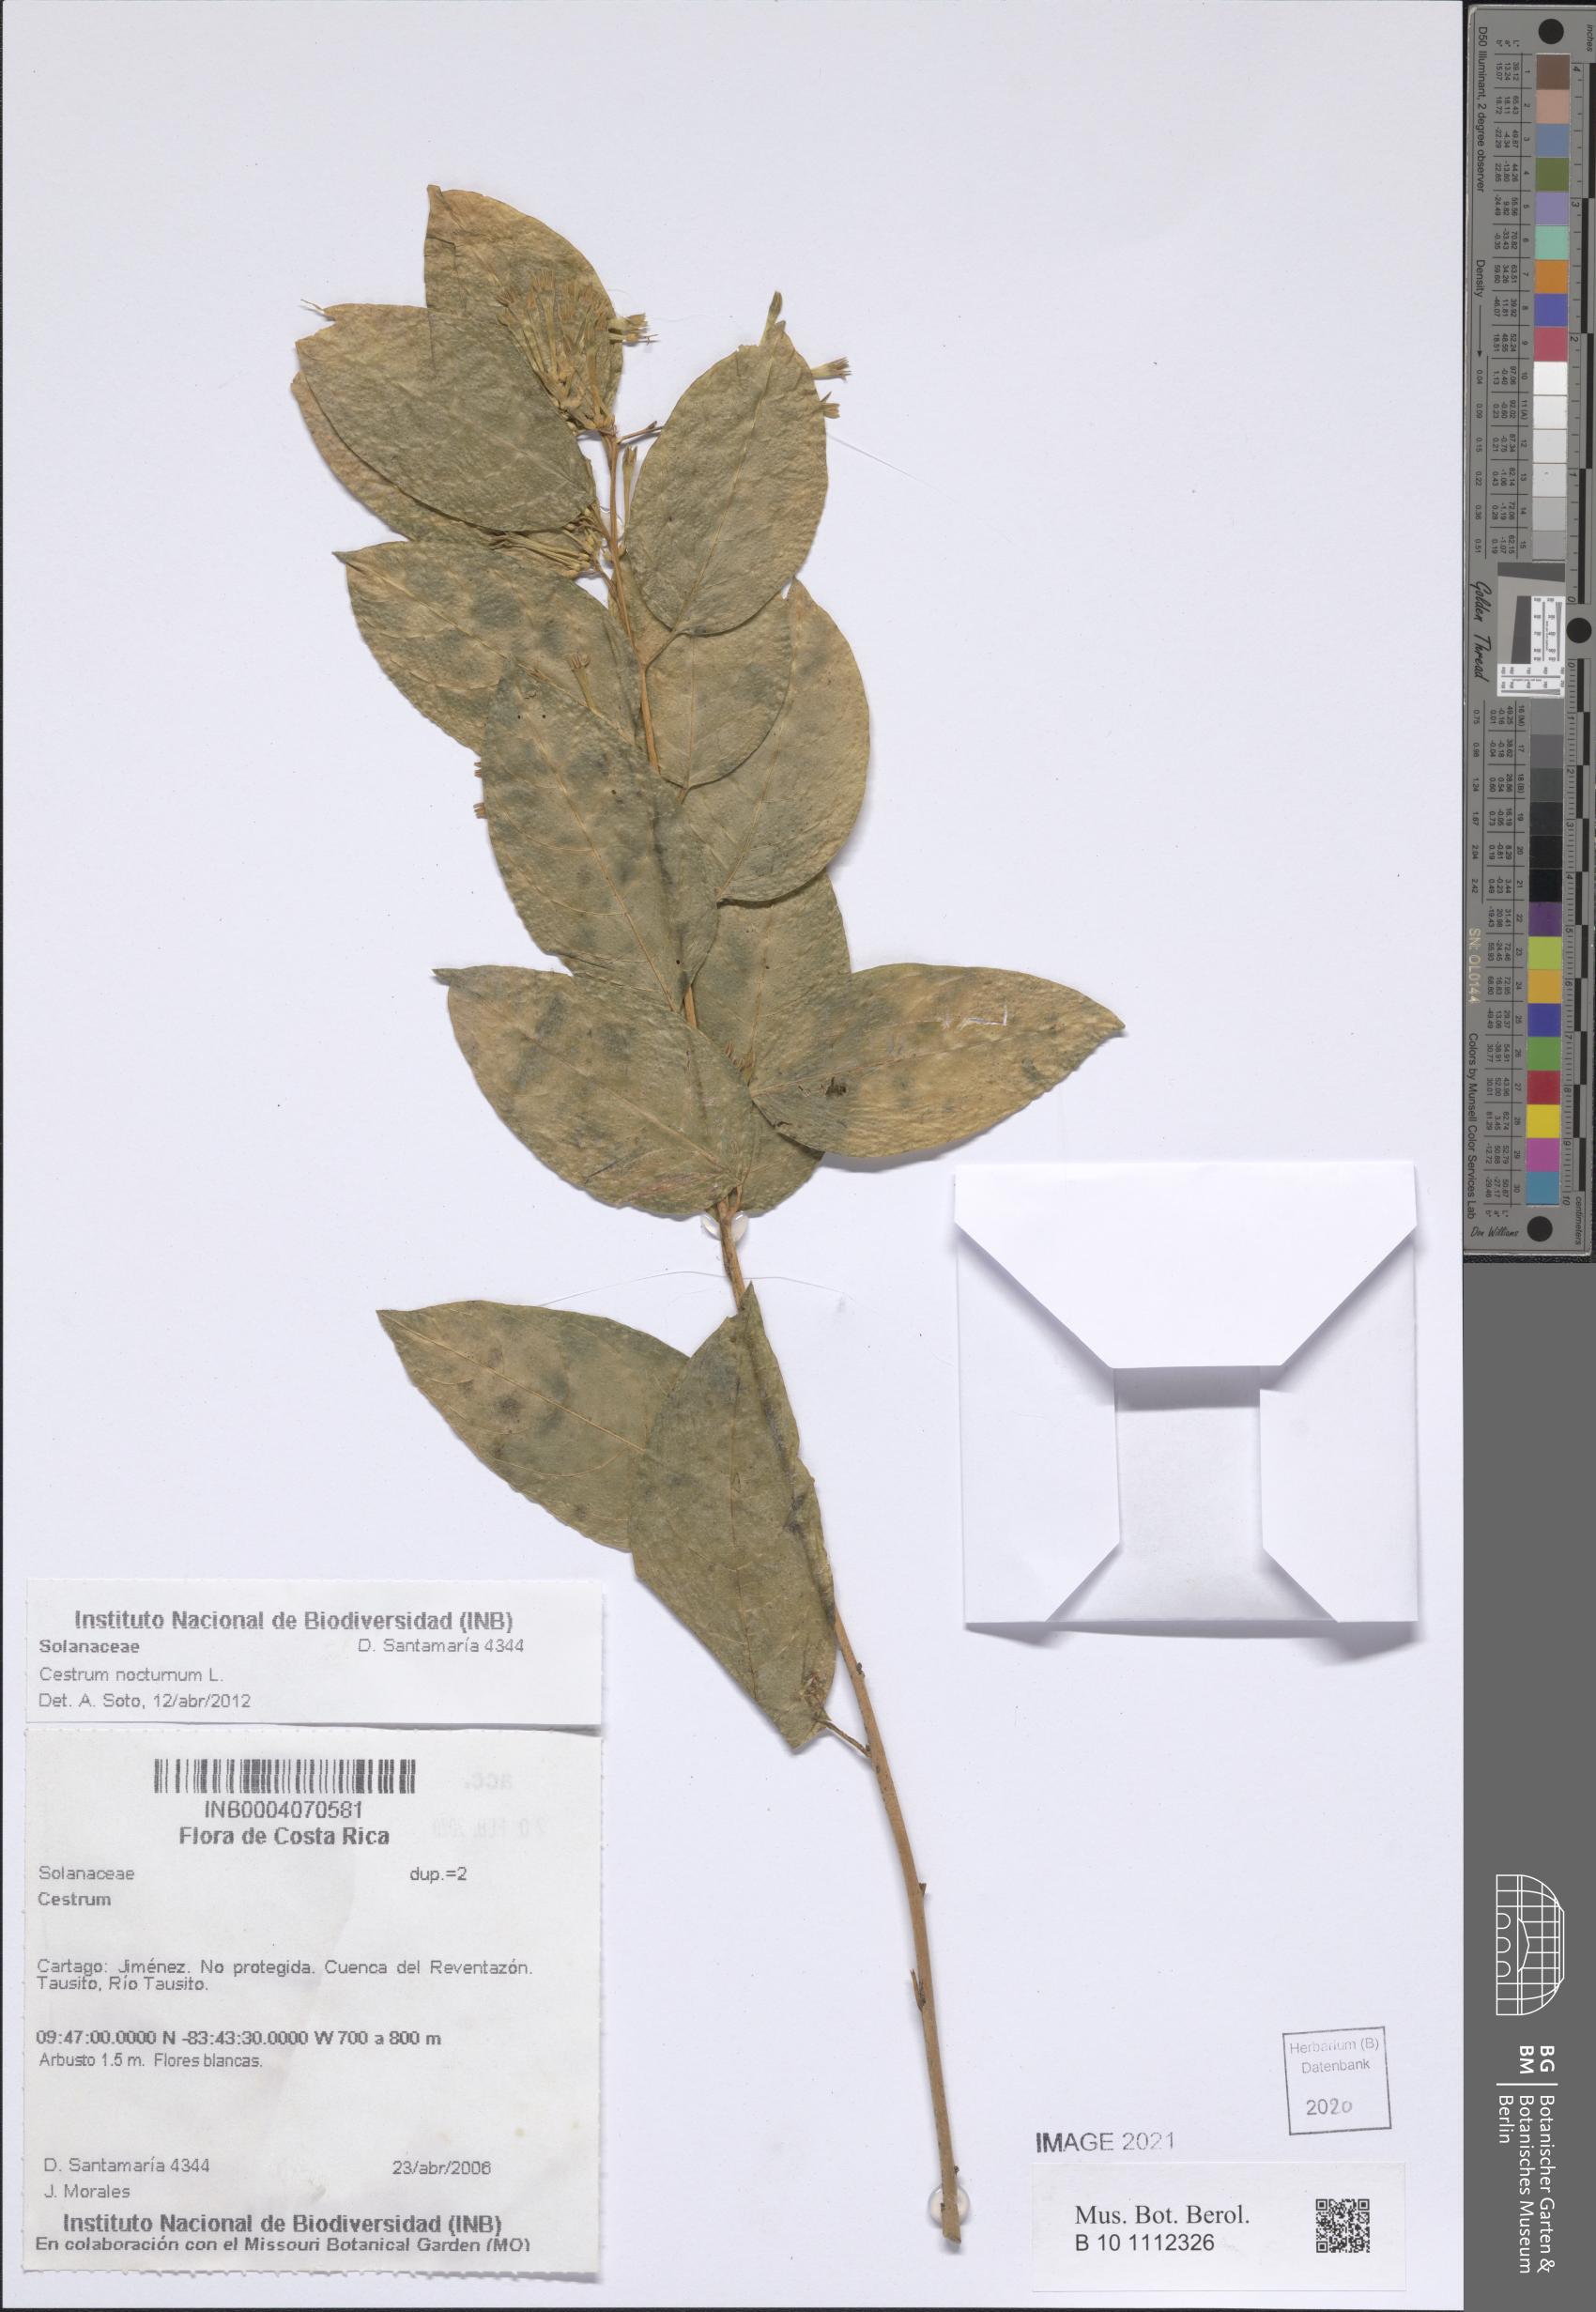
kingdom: Plantae
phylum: Tracheophyta
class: Magnoliopsida
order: Solanales
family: Solanaceae
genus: Cestrum
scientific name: Cestrum nocturnum
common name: Night jessamine
